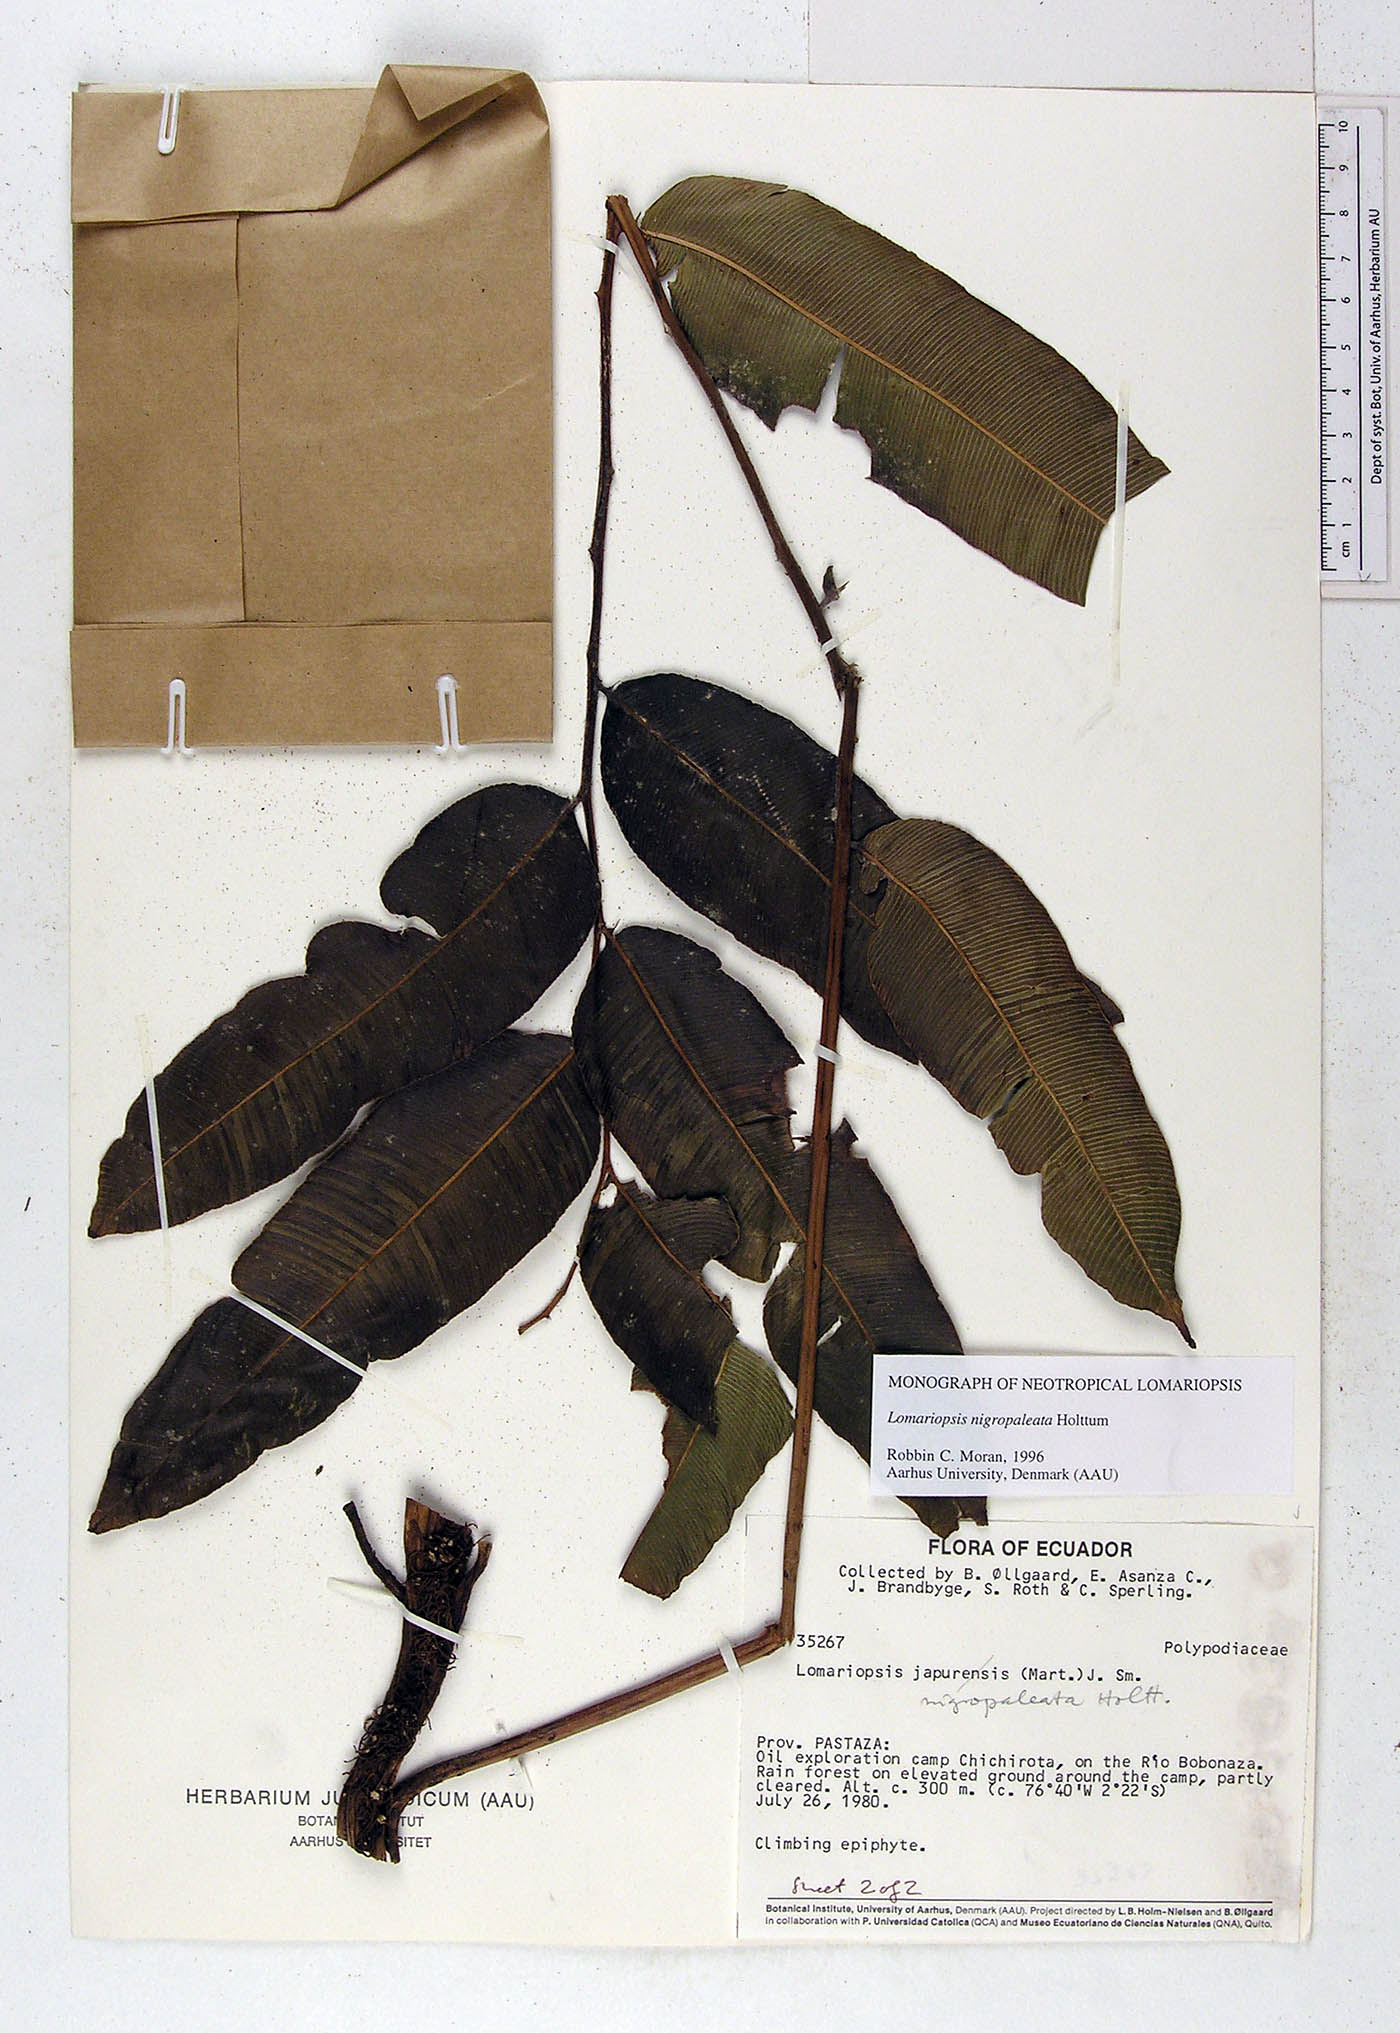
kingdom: Plantae
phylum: Tracheophyta
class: Polypodiopsida
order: Polypodiales
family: Lomariopsidaceae
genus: Lomariopsis
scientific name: Lomariopsis nigropaleata
